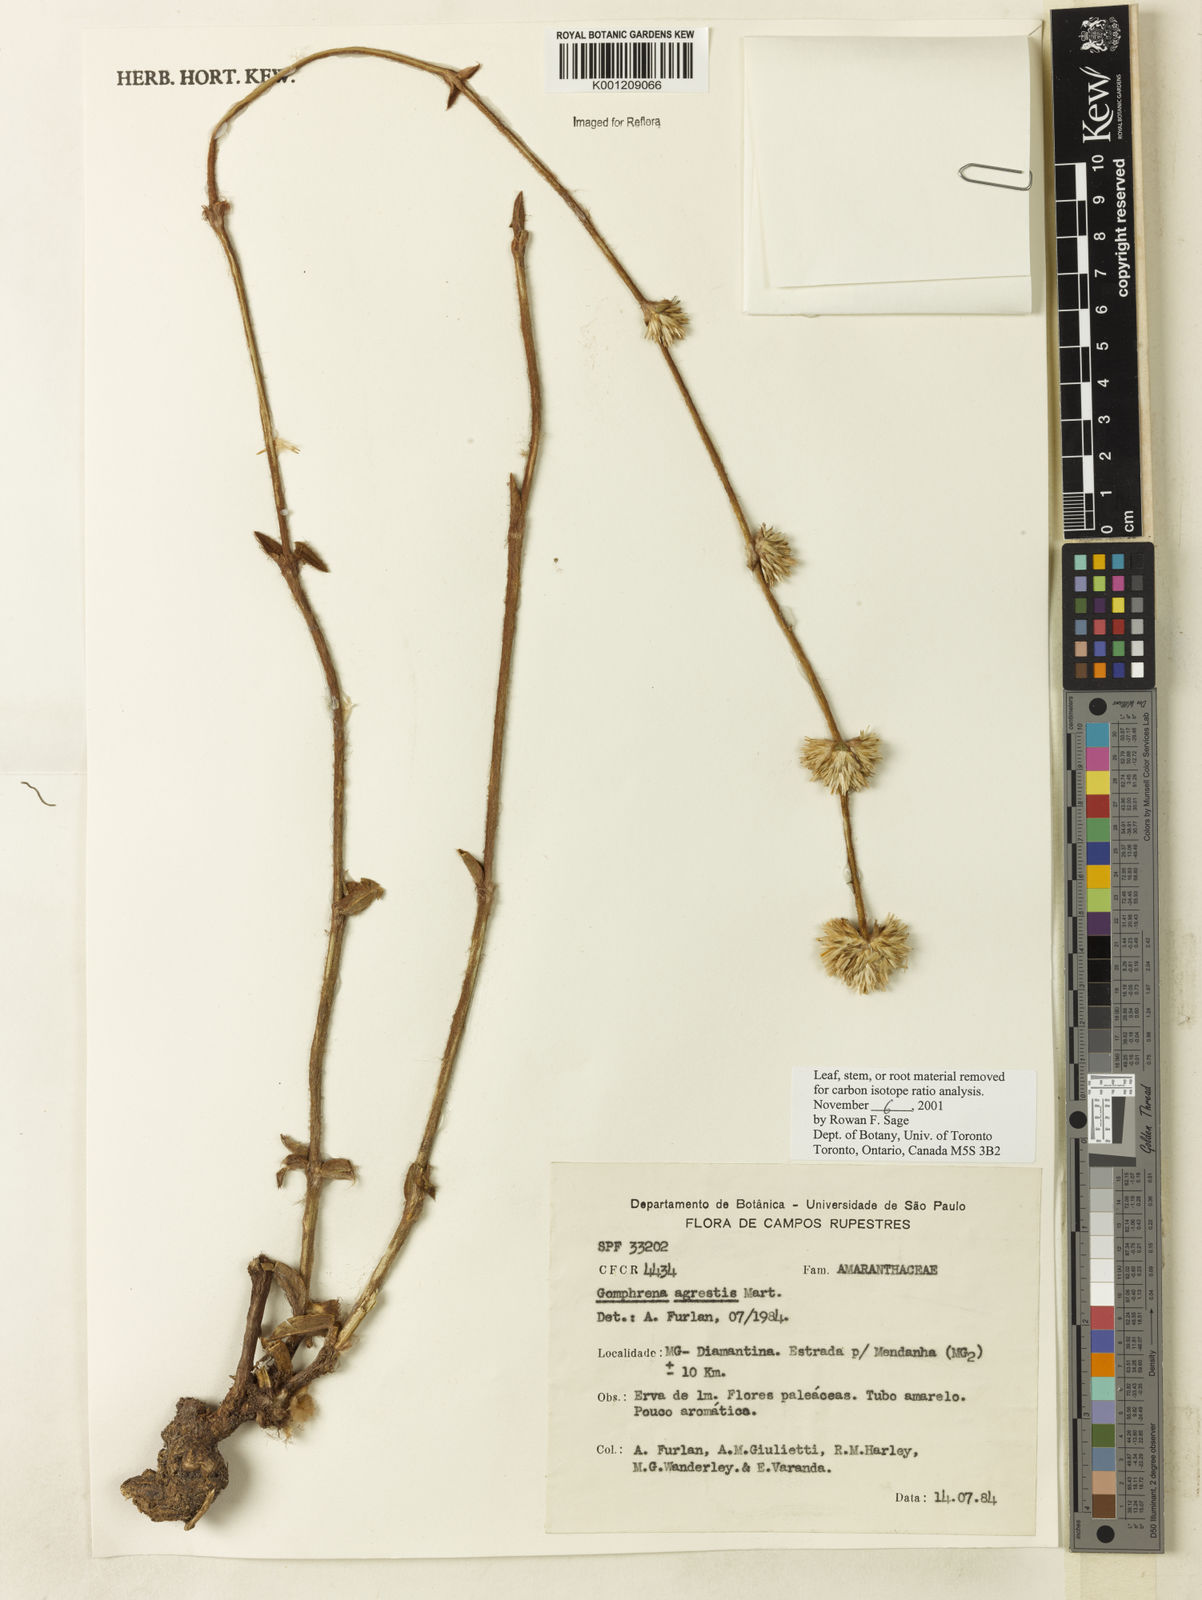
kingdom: Plantae
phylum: Tracheophyta
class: Magnoliopsida
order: Caryophyllales
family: Amaranthaceae
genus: Gomphrena
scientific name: Gomphrena agrestis
